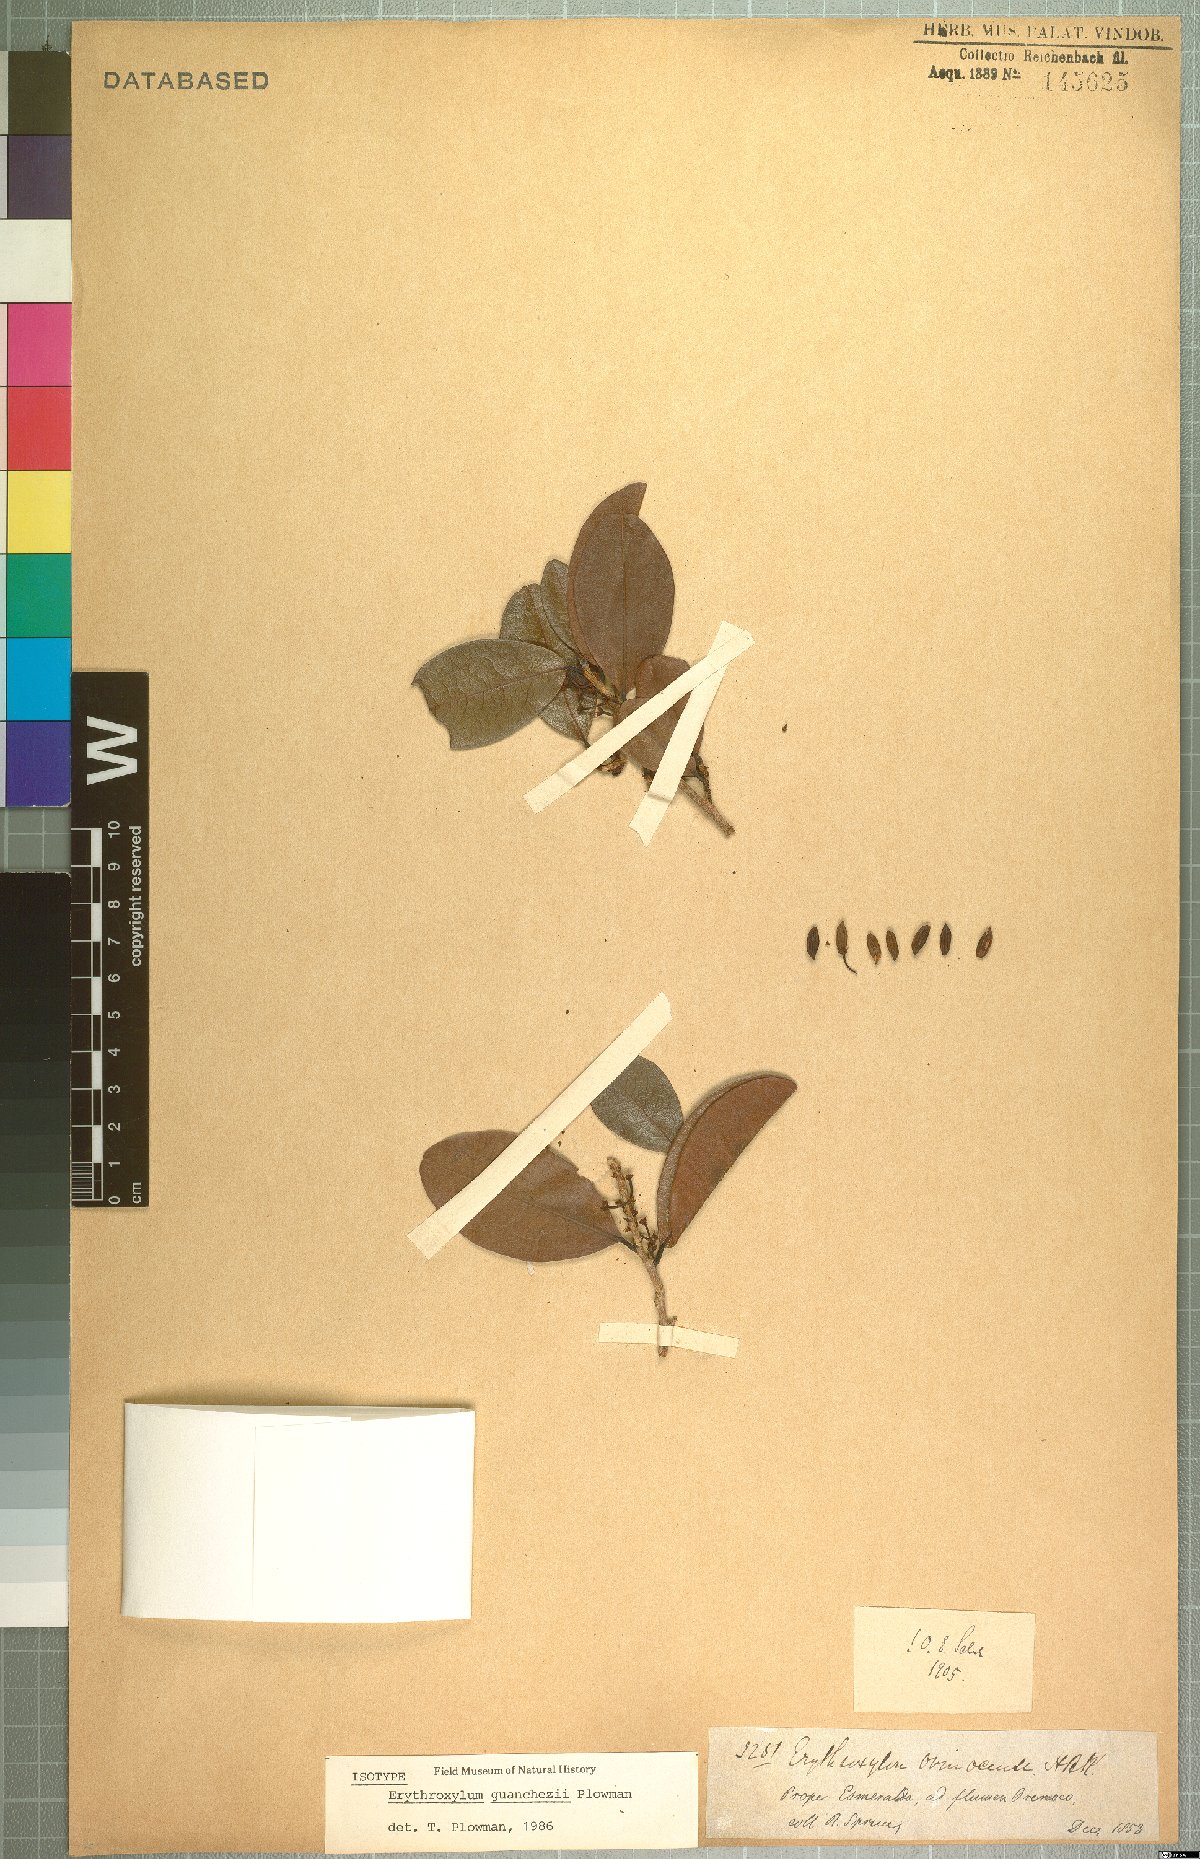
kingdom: Plantae
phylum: Tracheophyta
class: Magnoliopsida
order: Malpighiales
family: Erythroxylaceae
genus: Erythroxylum
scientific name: Erythroxylum guanchezii
